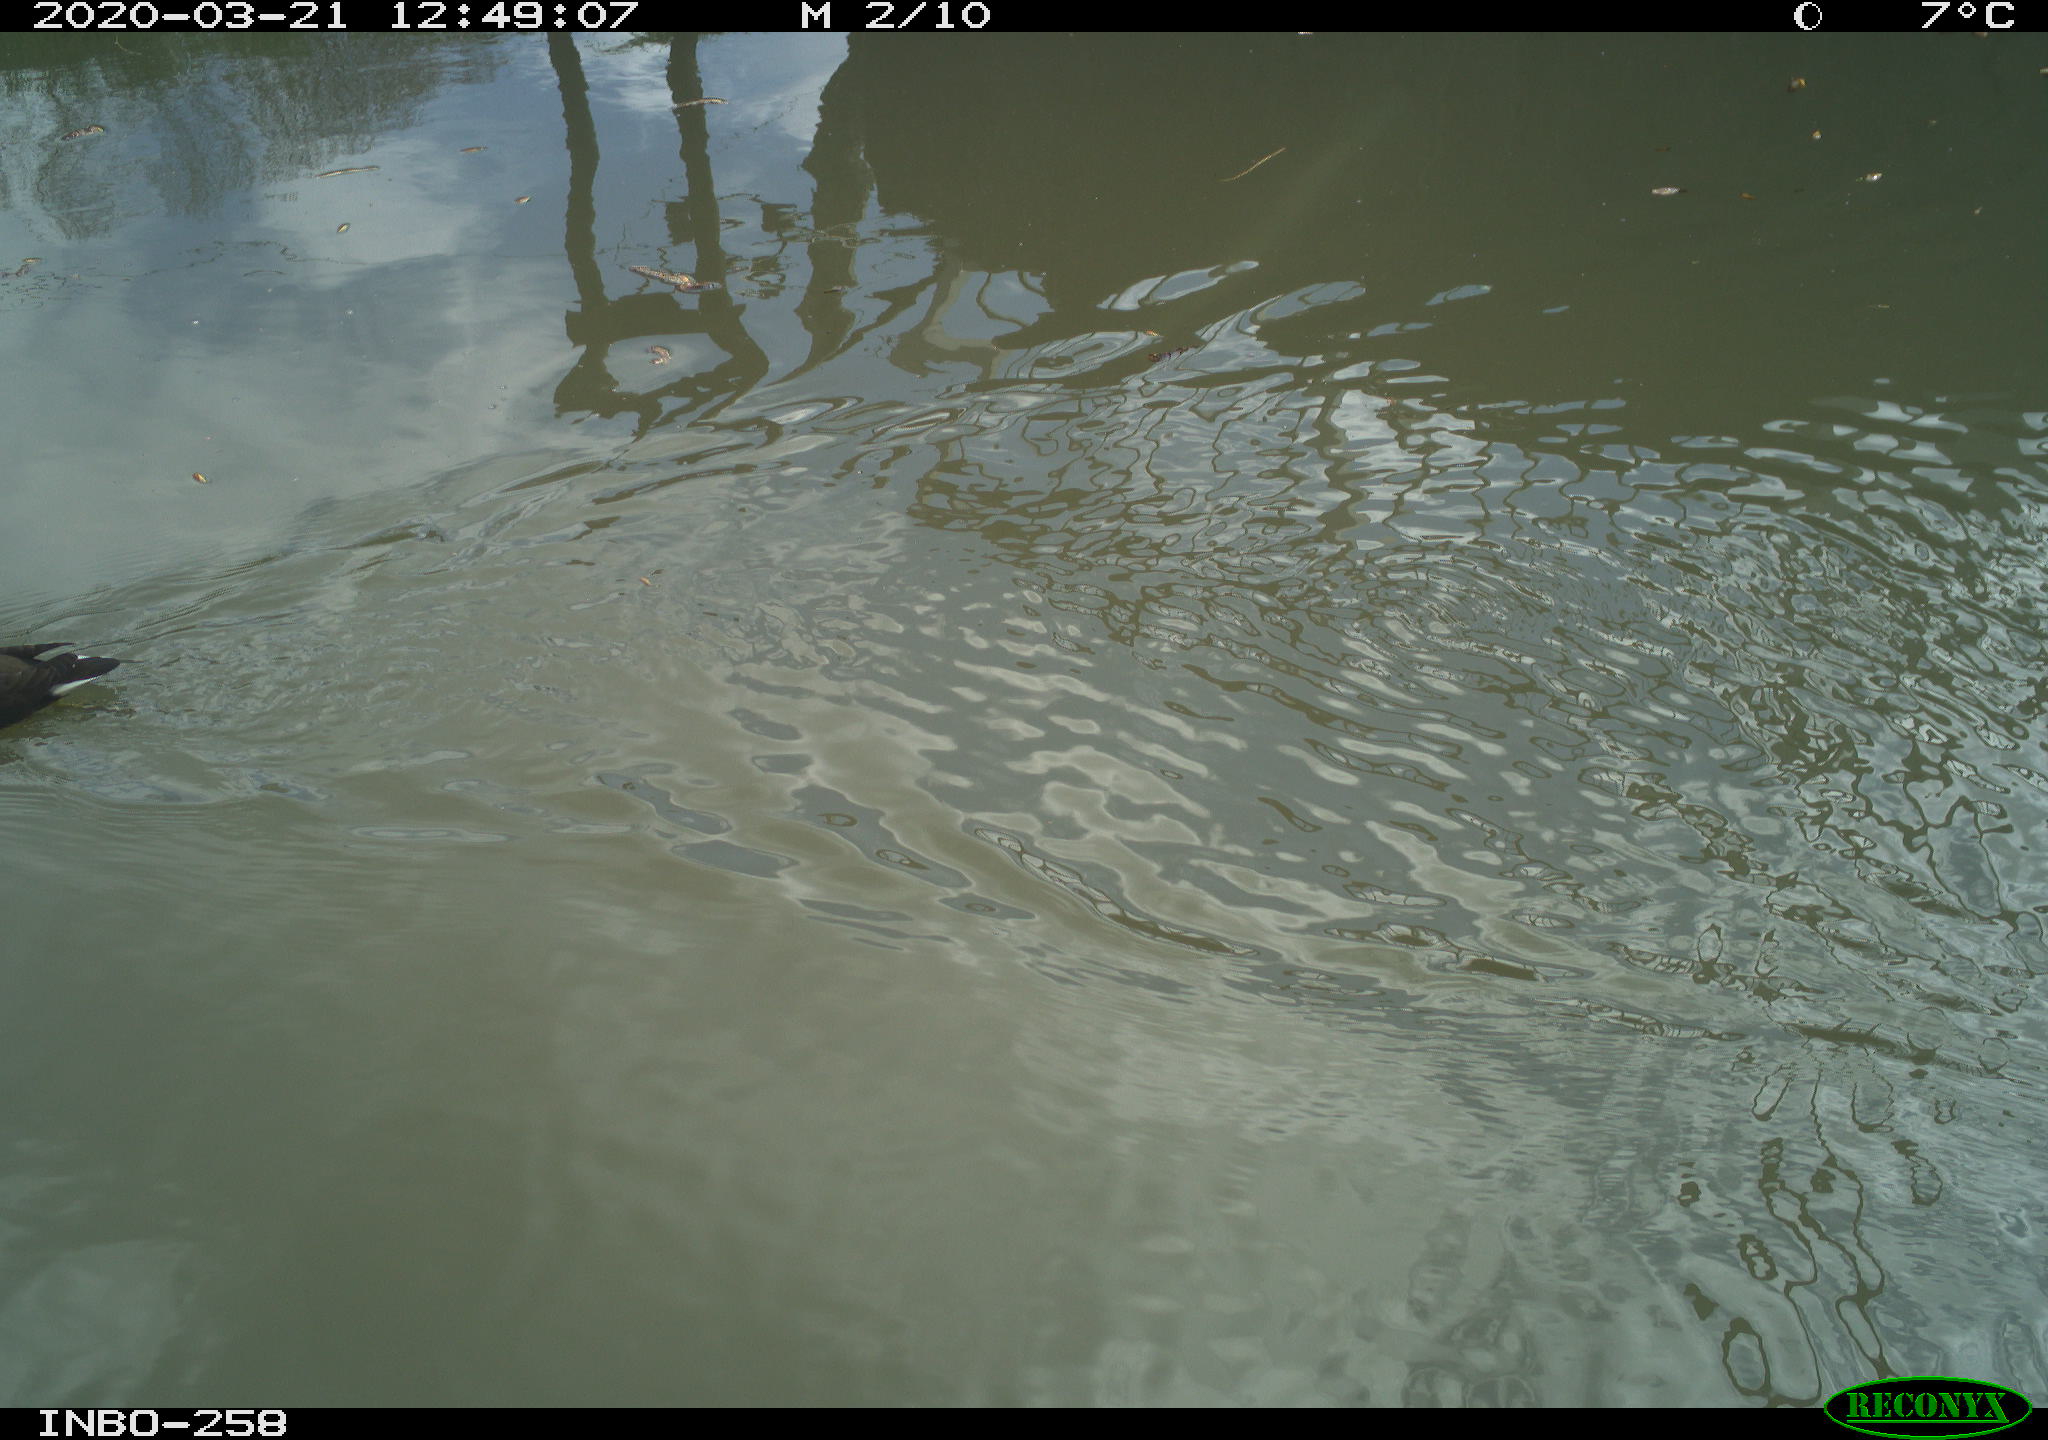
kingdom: Animalia
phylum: Chordata
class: Aves
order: Gruiformes
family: Rallidae
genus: Gallinula
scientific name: Gallinula chloropus
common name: Common moorhen
